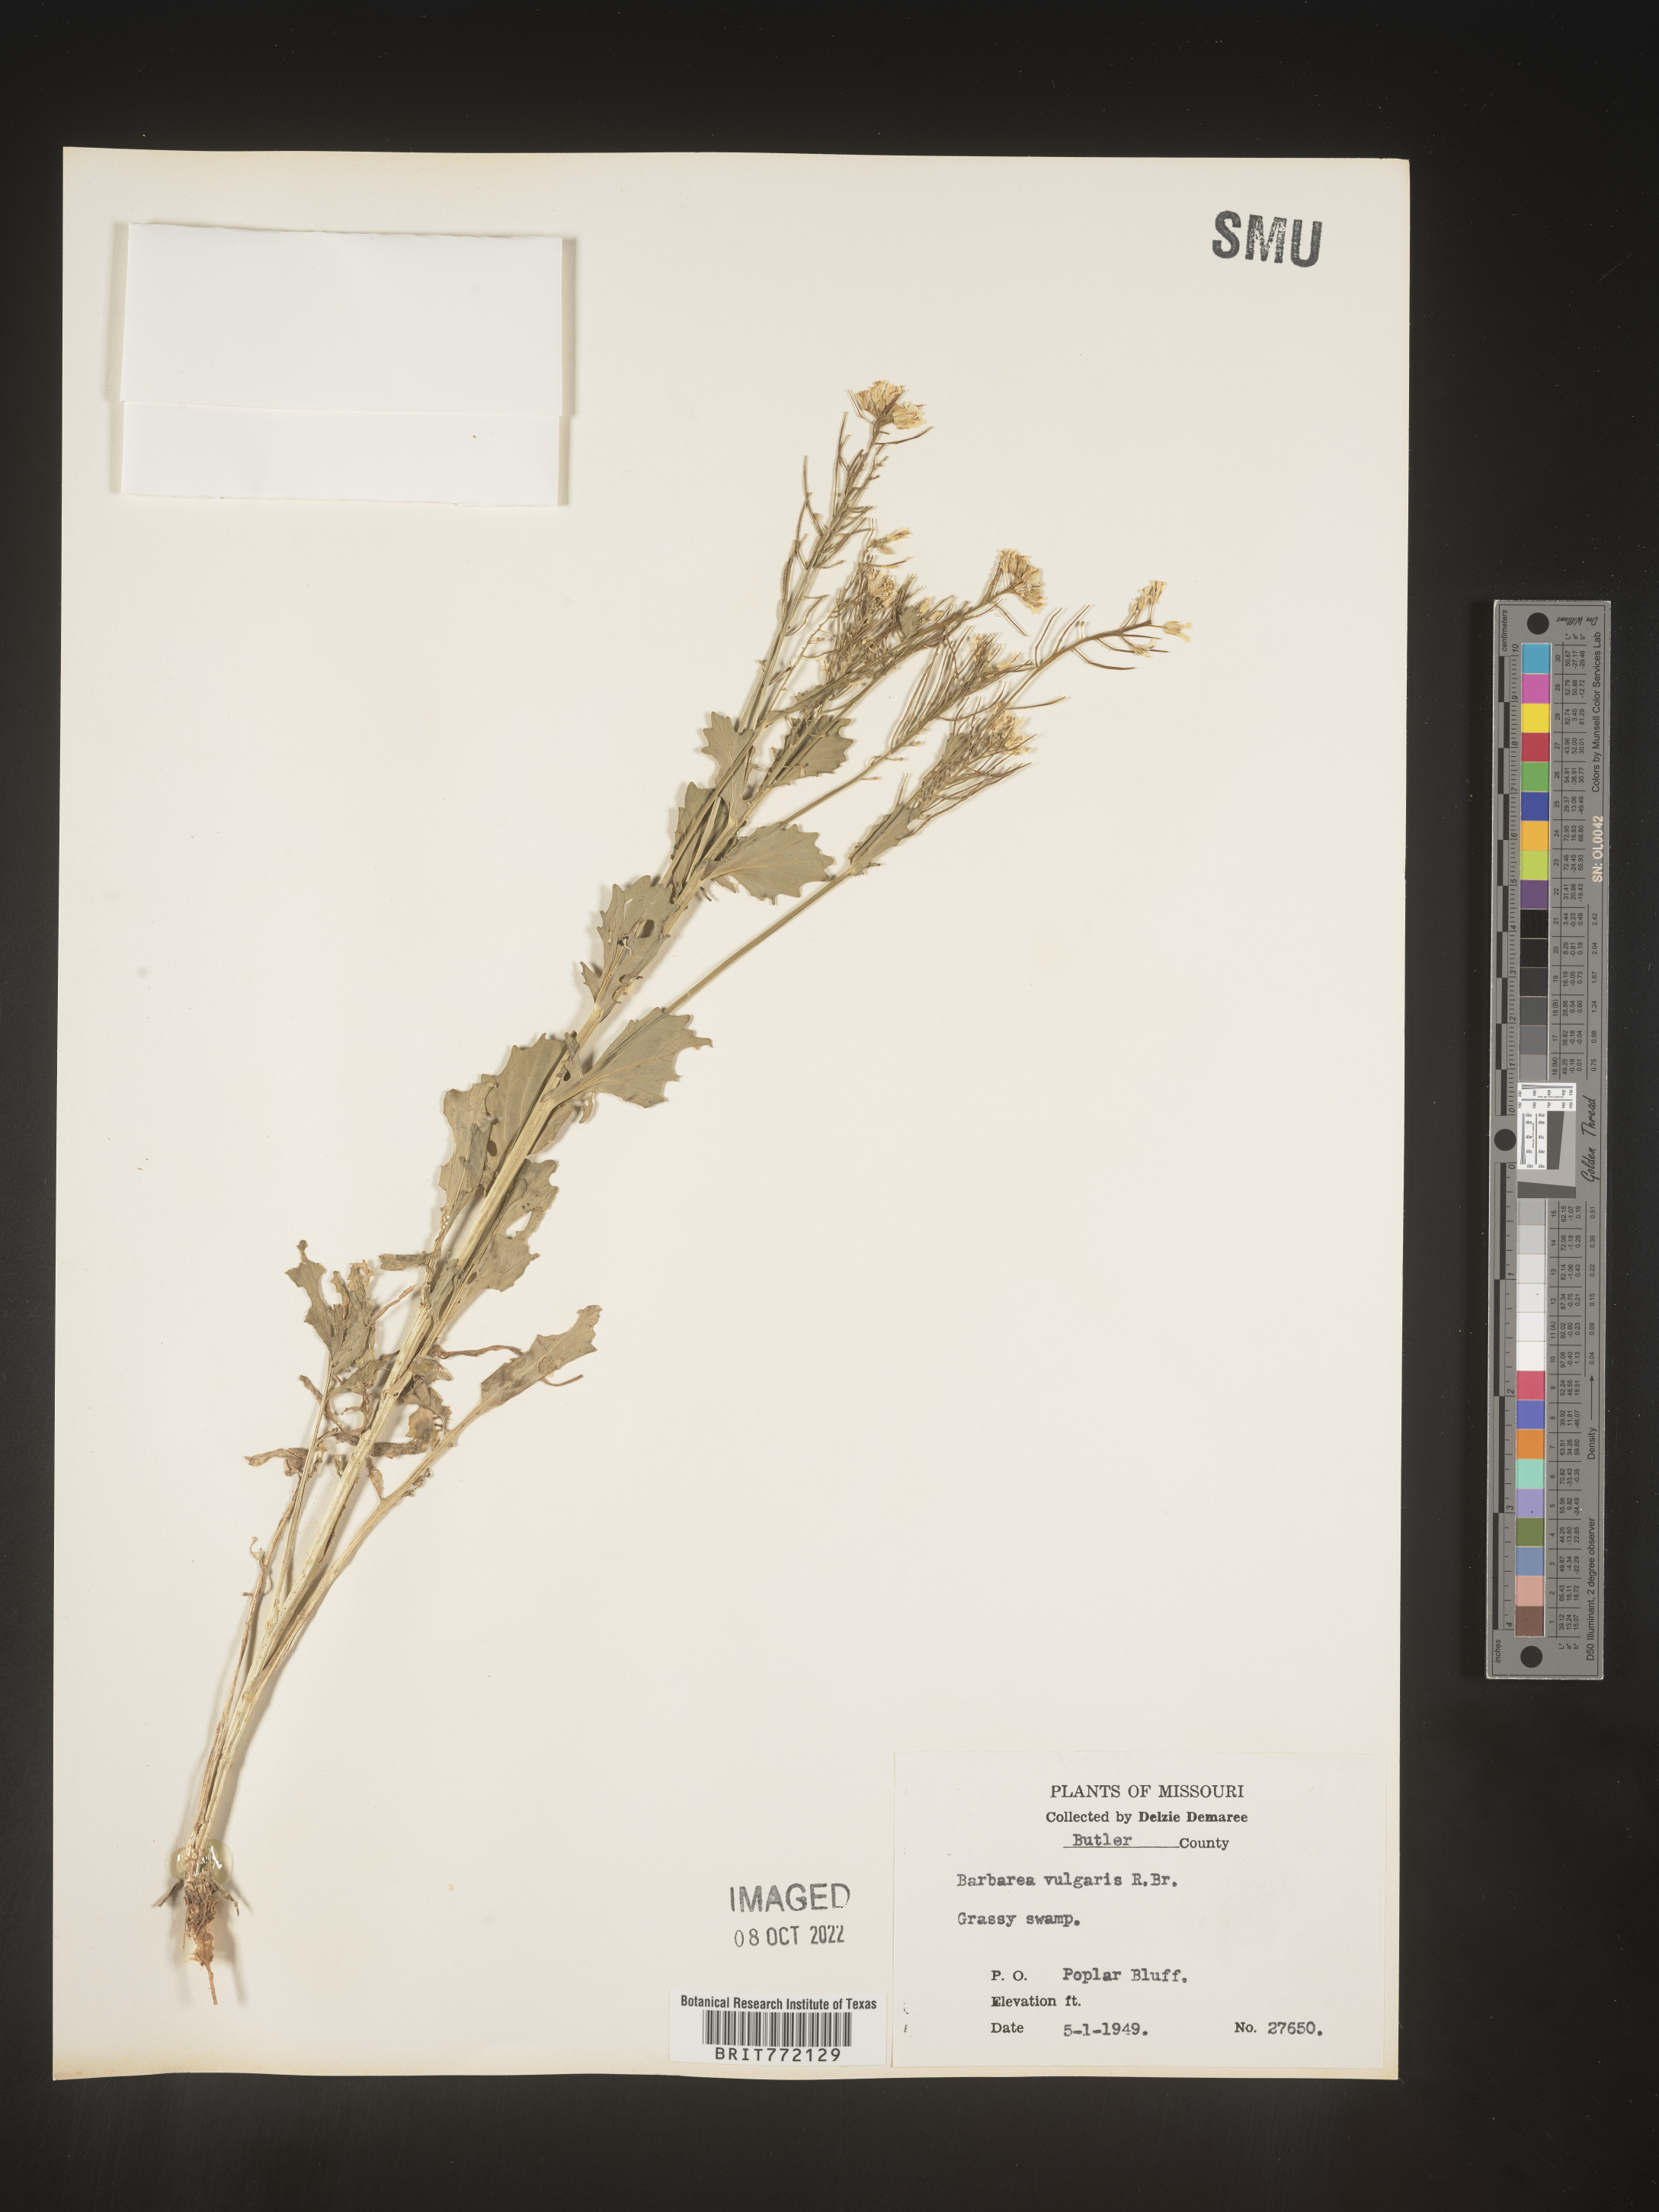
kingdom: Plantae
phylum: Tracheophyta
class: Magnoliopsida
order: Brassicales
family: Brassicaceae
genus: Barbarea
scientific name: Barbarea vulgaris
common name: Cressy-greens
